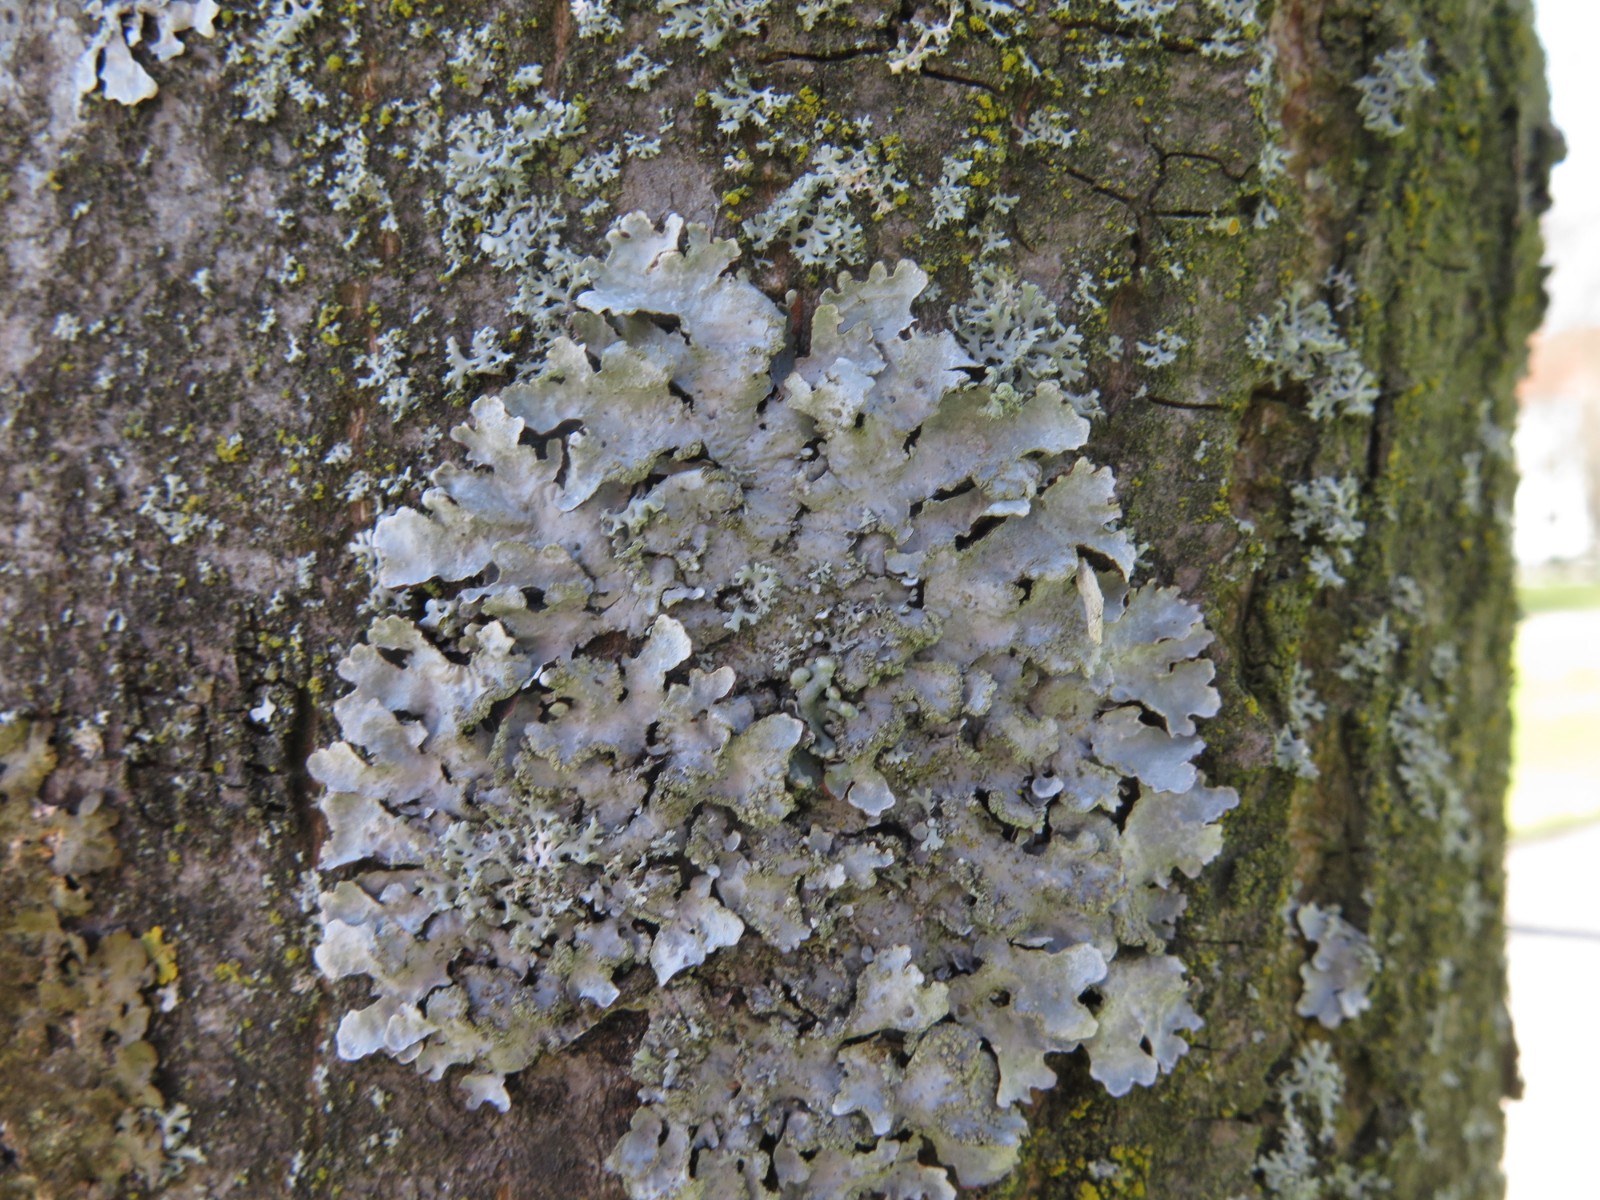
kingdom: Fungi
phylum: Ascomycota
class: Lecanoromycetes
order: Lecanorales
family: Parmeliaceae
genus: Parmelia
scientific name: Parmelia sulcata
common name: rynket skållav
